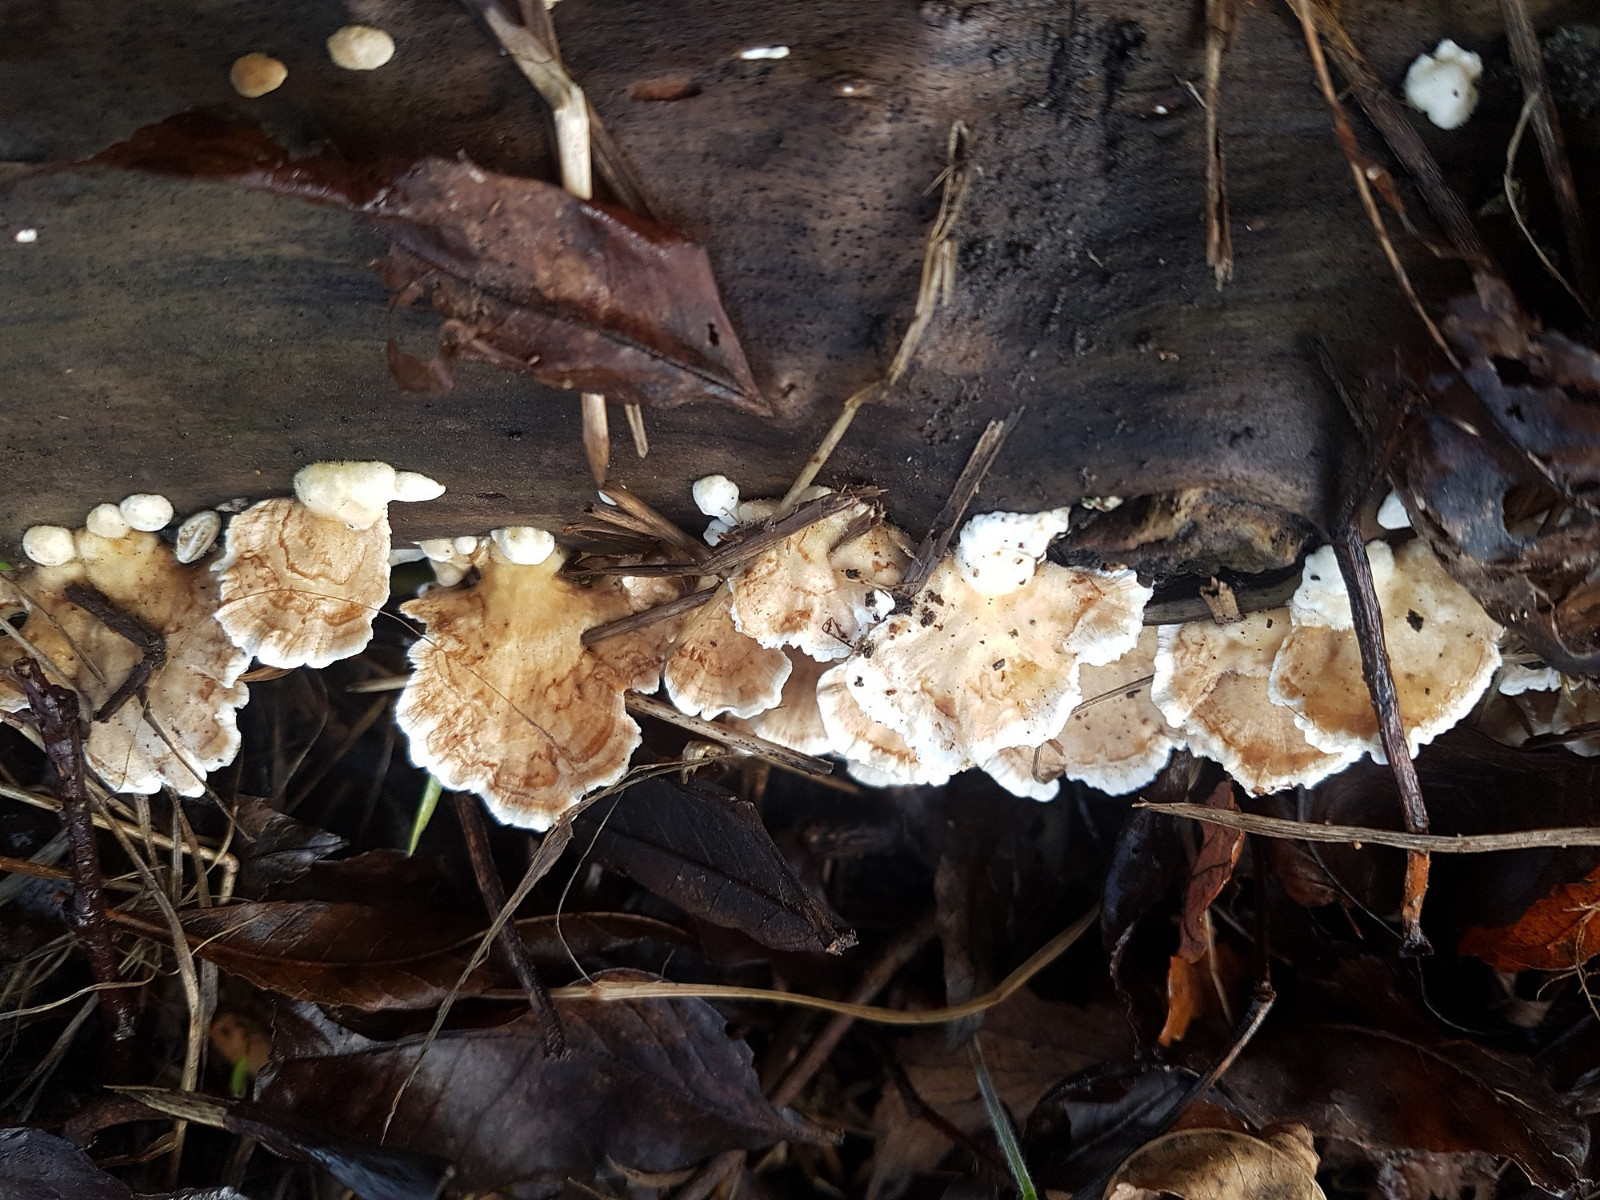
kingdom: Fungi
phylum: Basidiomycota
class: Agaricomycetes
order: Polyporales
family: Polyporaceae
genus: Trametes
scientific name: Trametes versicolor
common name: broget læderporesvamp
